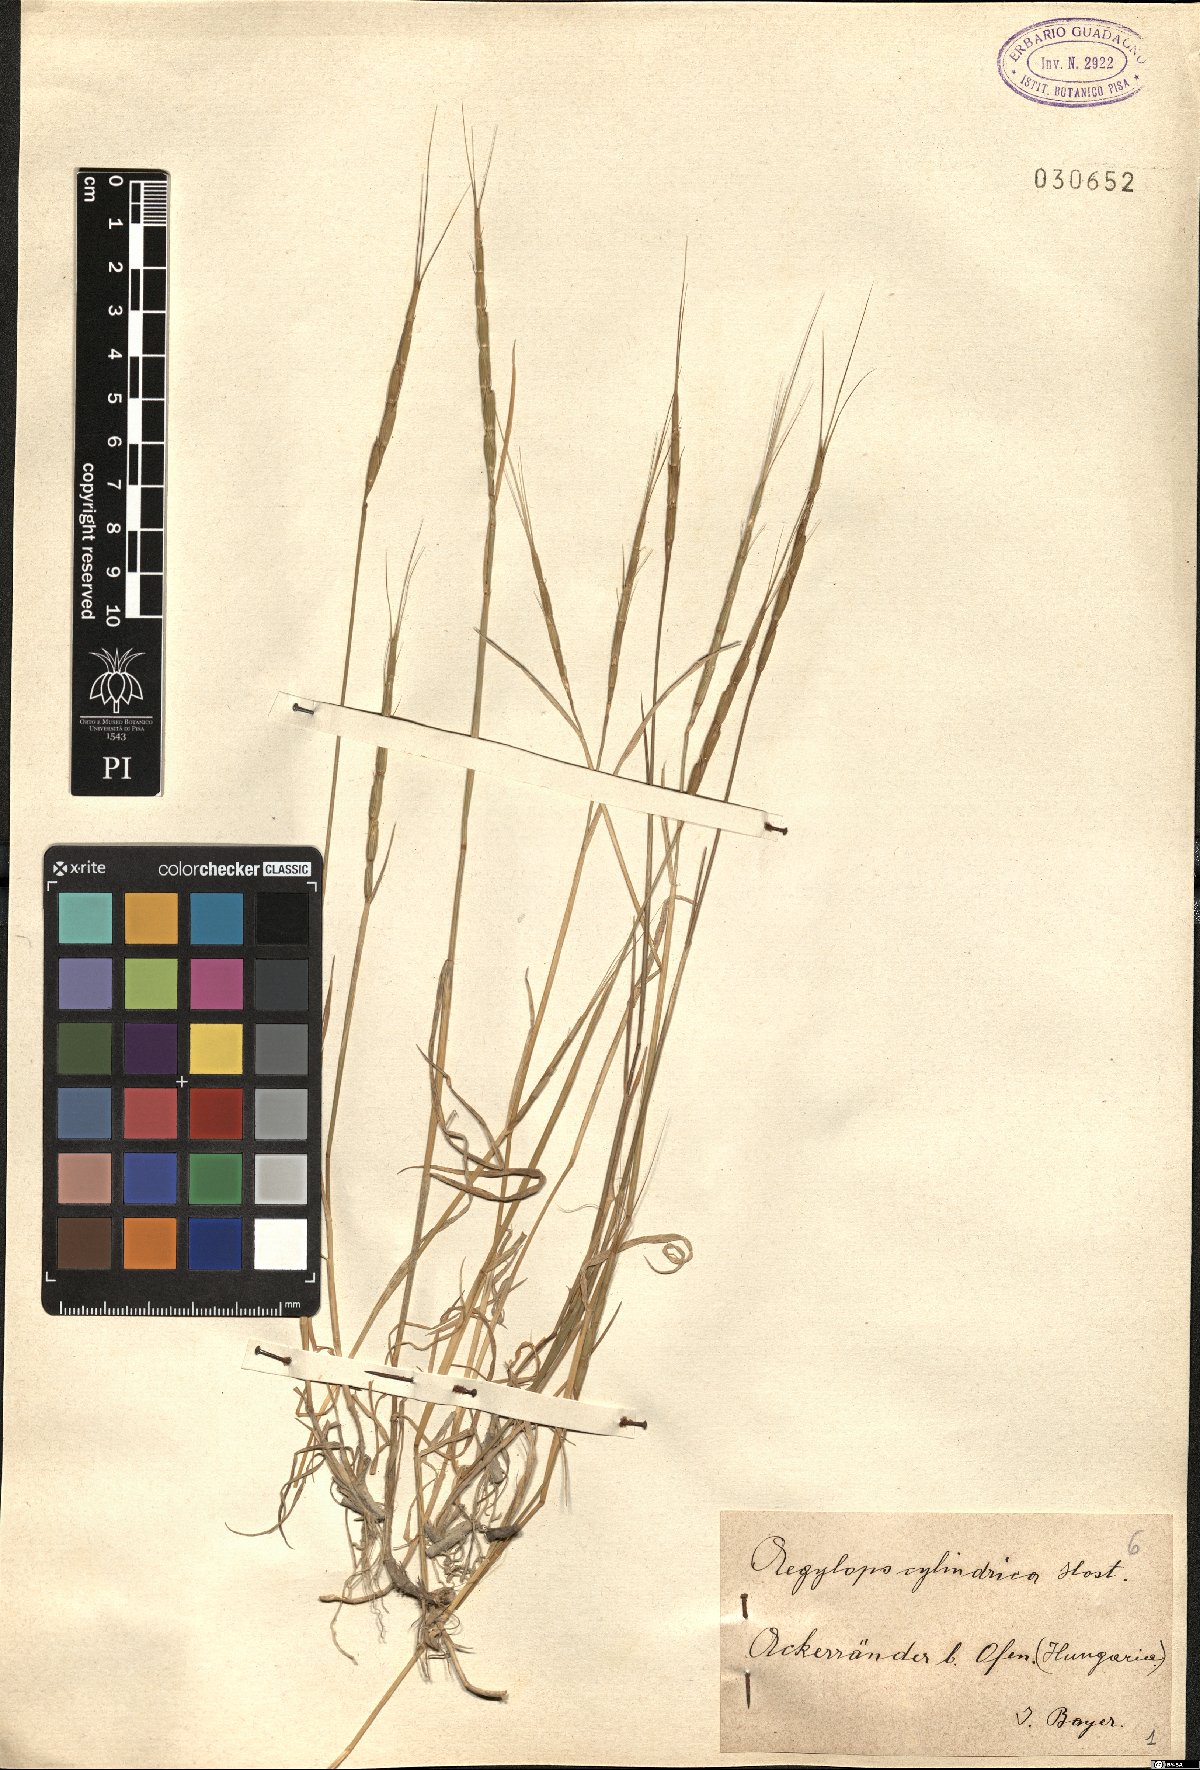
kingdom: Plantae
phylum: Tracheophyta
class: Liliopsida
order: Poales
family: Poaceae
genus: Aegilops
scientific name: Aegilops cylindrica
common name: Jointed goatgrass
